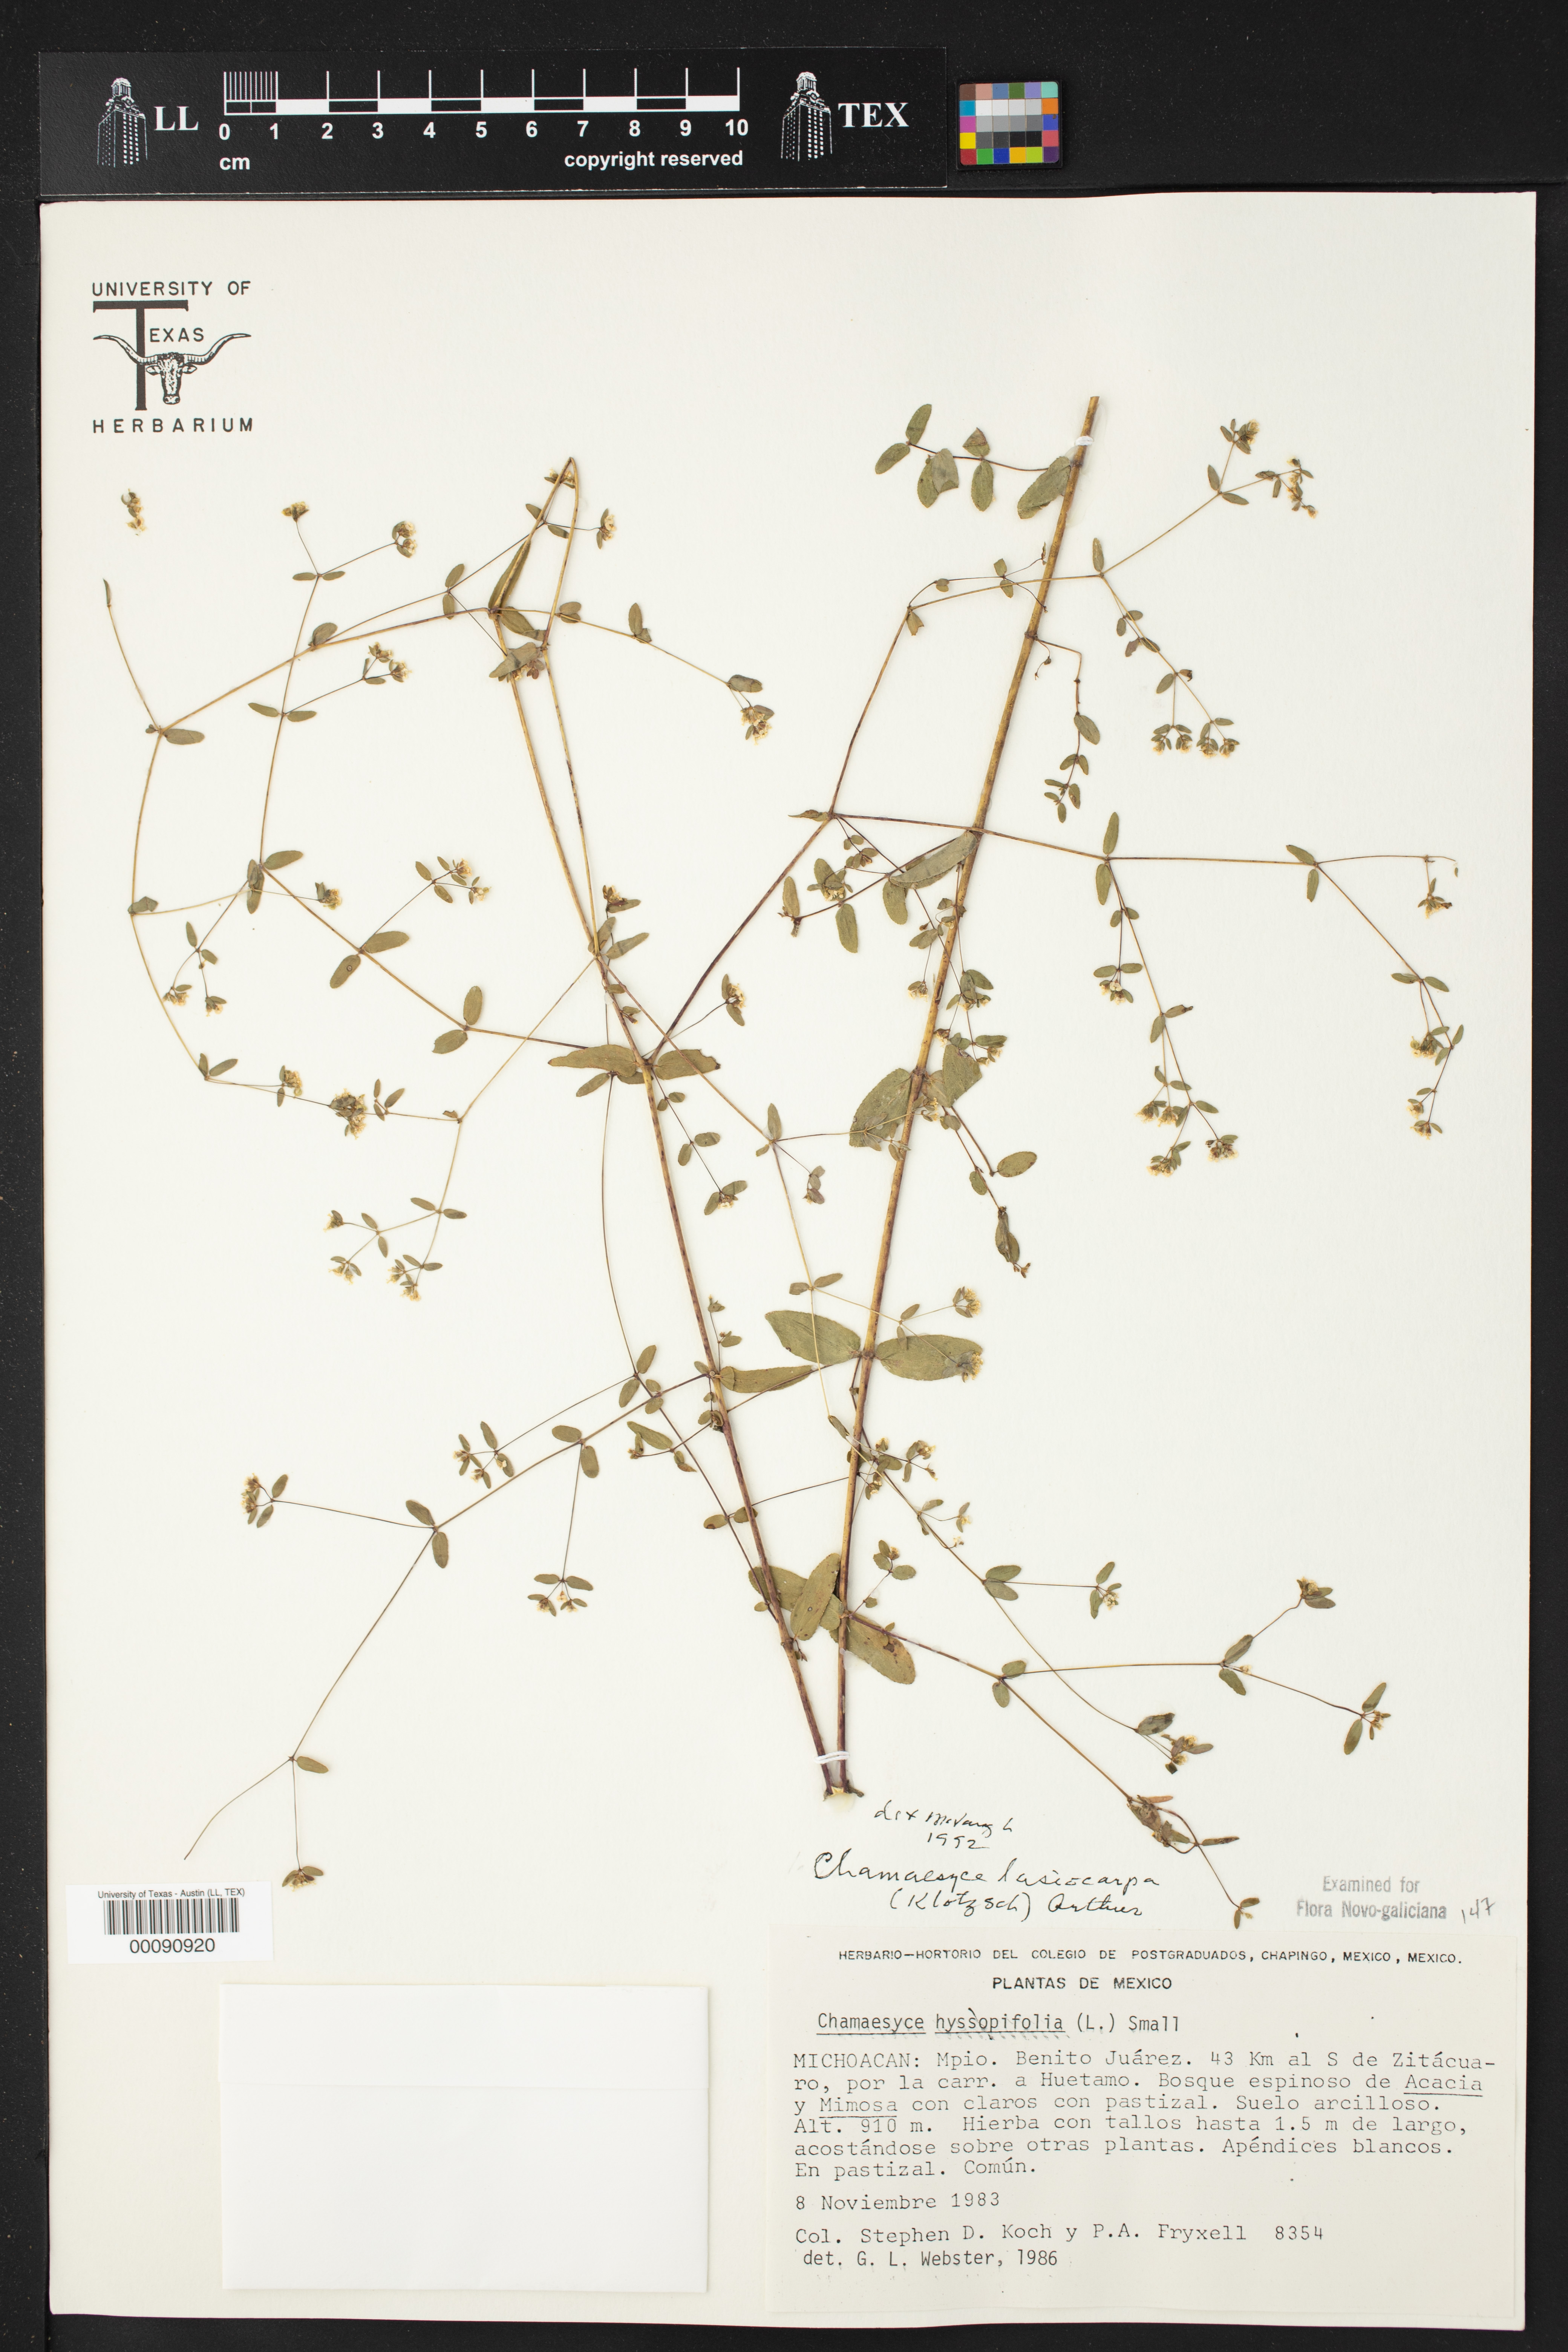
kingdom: Plantae
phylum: Tracheophyta
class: Magnoliopsida
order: Malpighiales
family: Euphorbiaceae
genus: Euphorbia
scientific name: Euphorbia lasiocarpa
